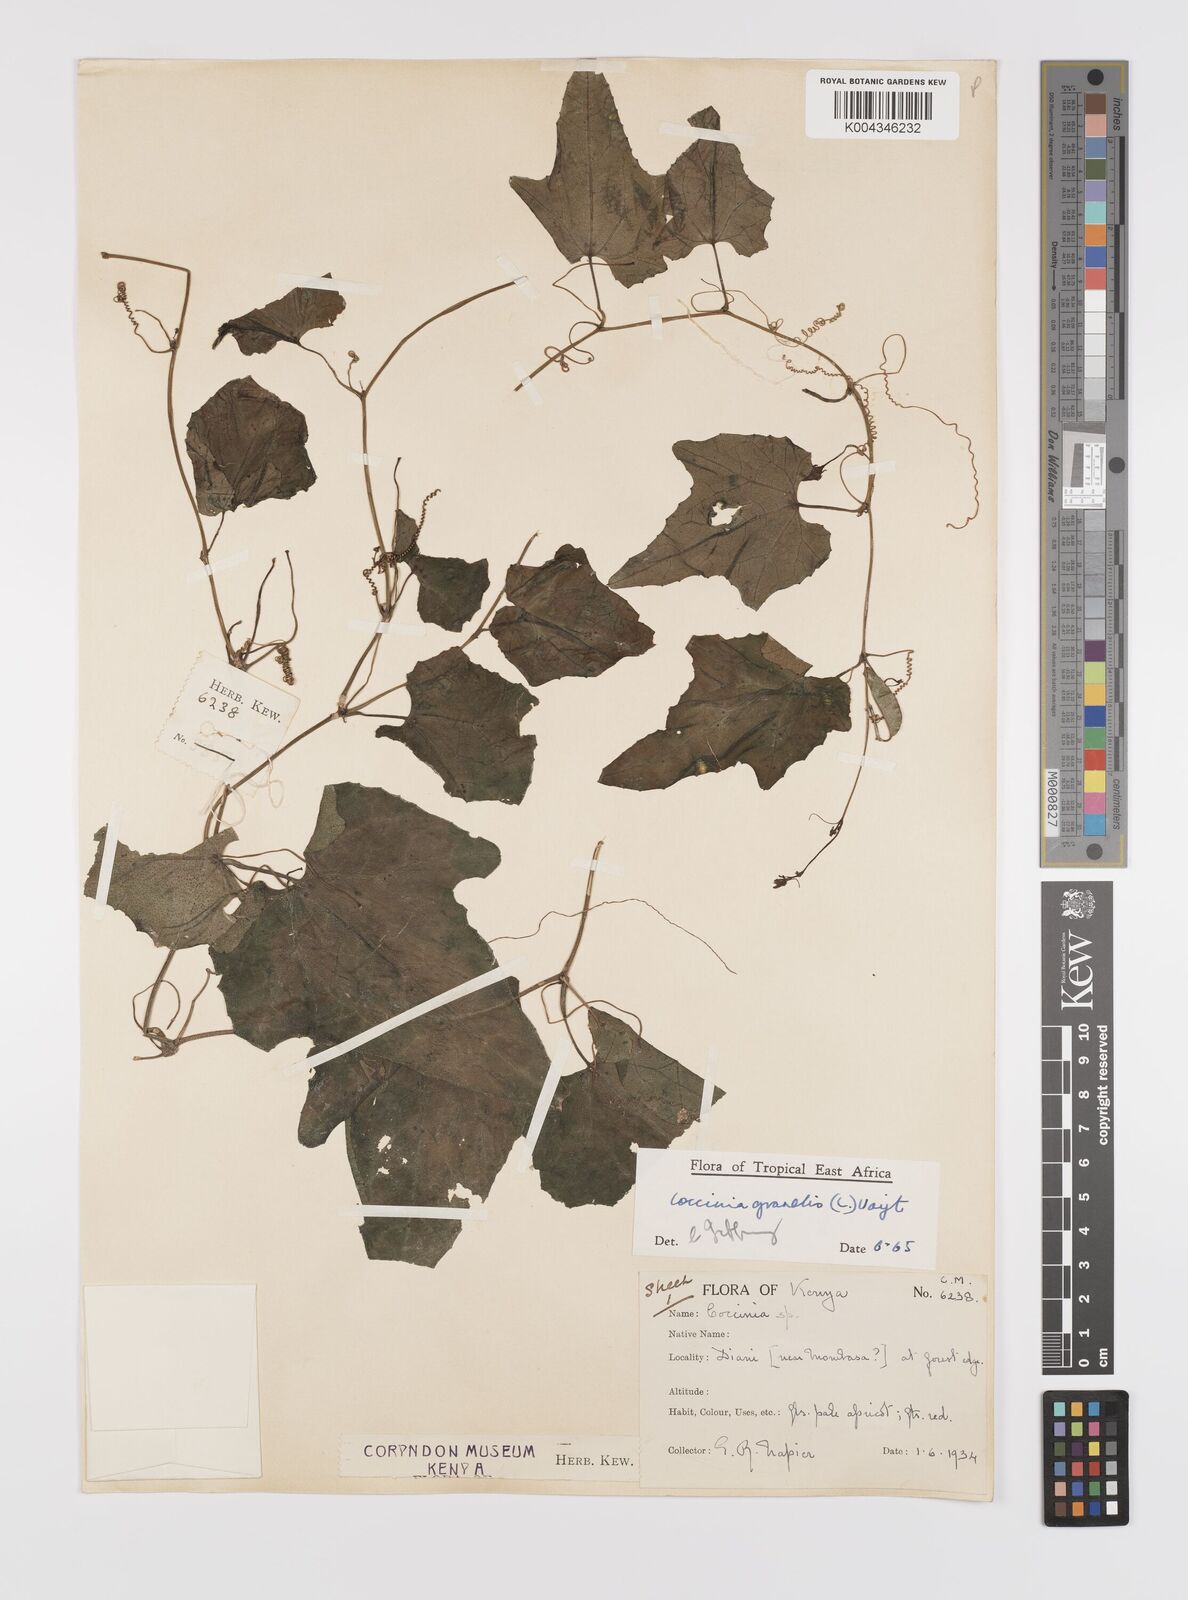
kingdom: Plantae
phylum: Tracheophyta
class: Magnoliopsida
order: Cucurbitales
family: Cucurbitaceae
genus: Coccinia
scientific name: Coccinia grandis
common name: Ivy gourd
